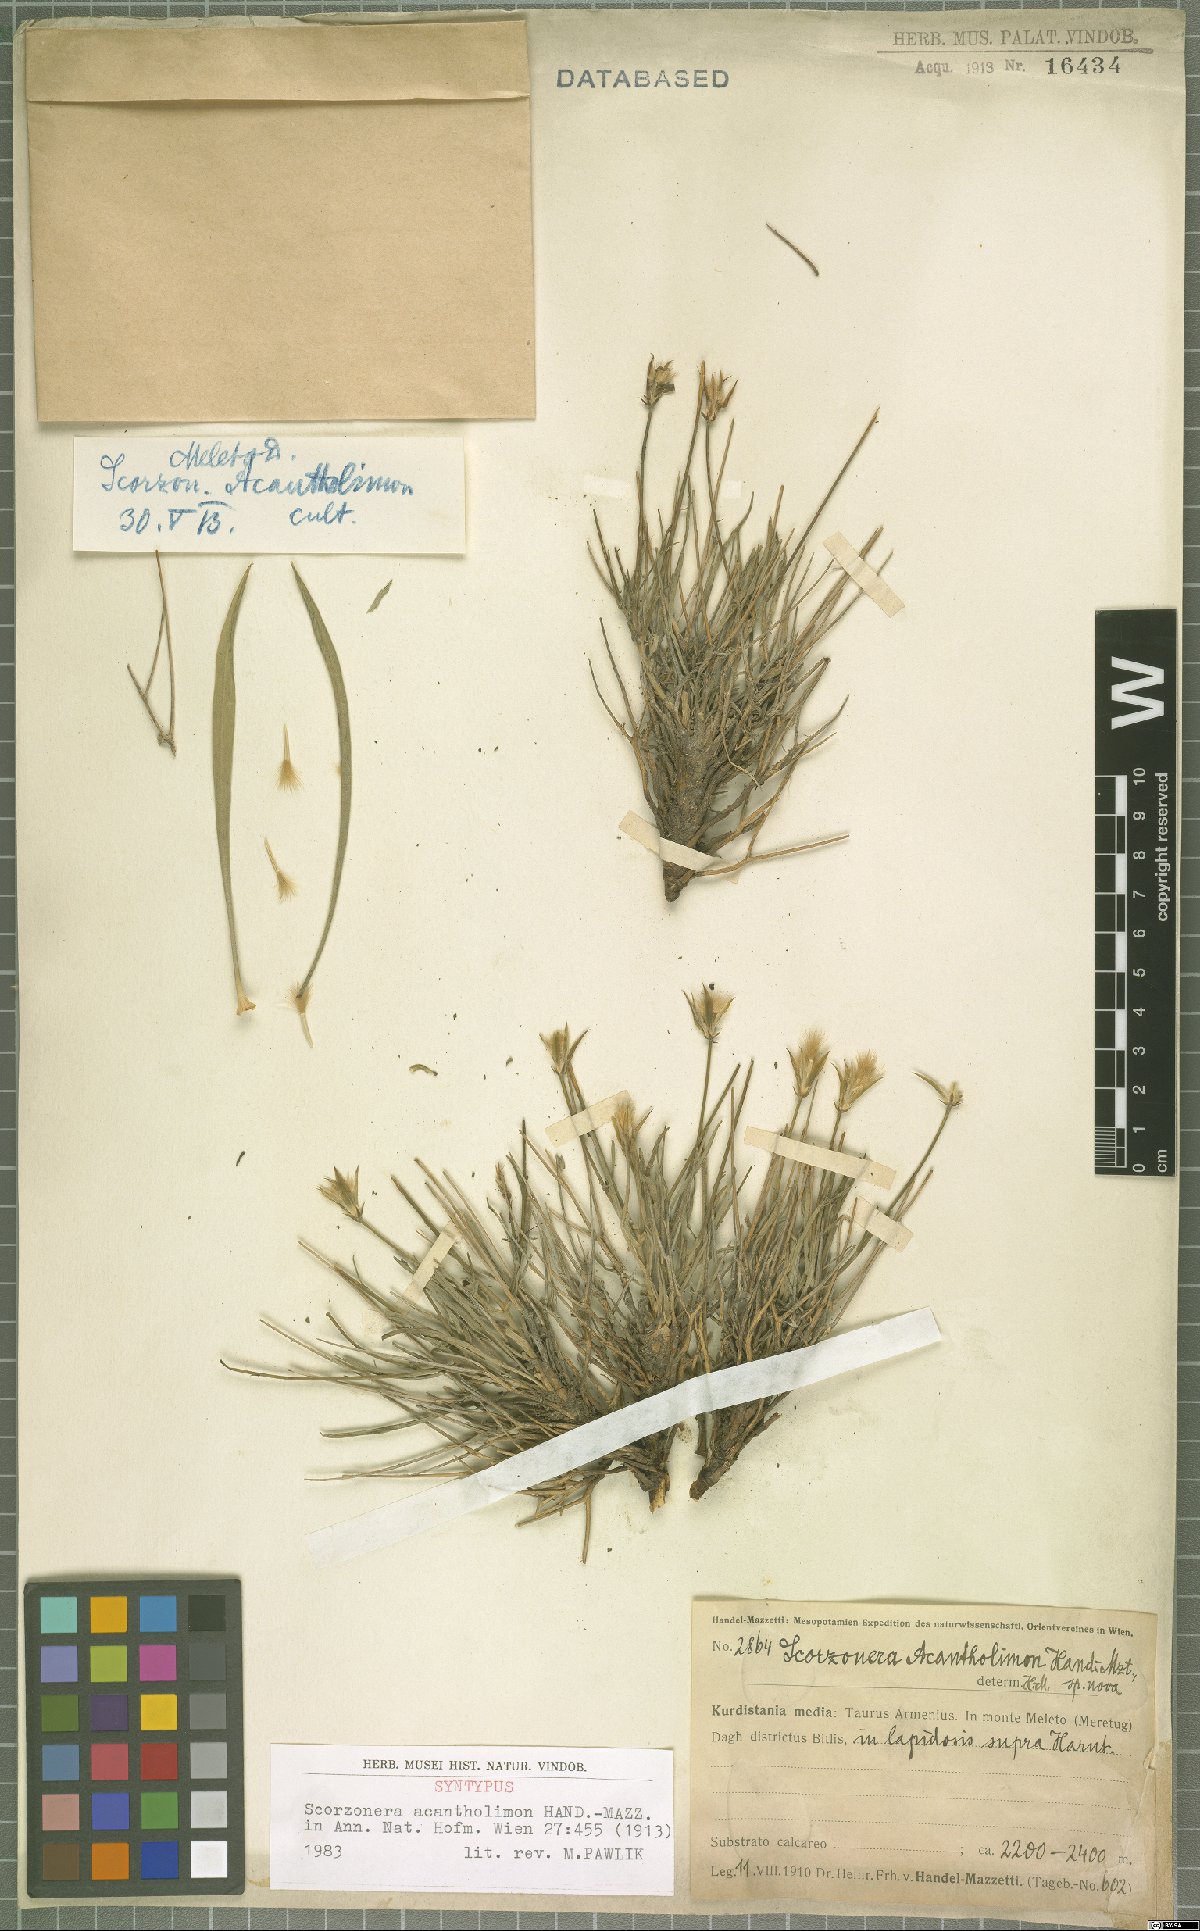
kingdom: Plantae
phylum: Tracheophyta
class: Magnoliopsida
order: Asterales
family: Asteraceae
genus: Ramaliella
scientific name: Ramaliella acantholimon
